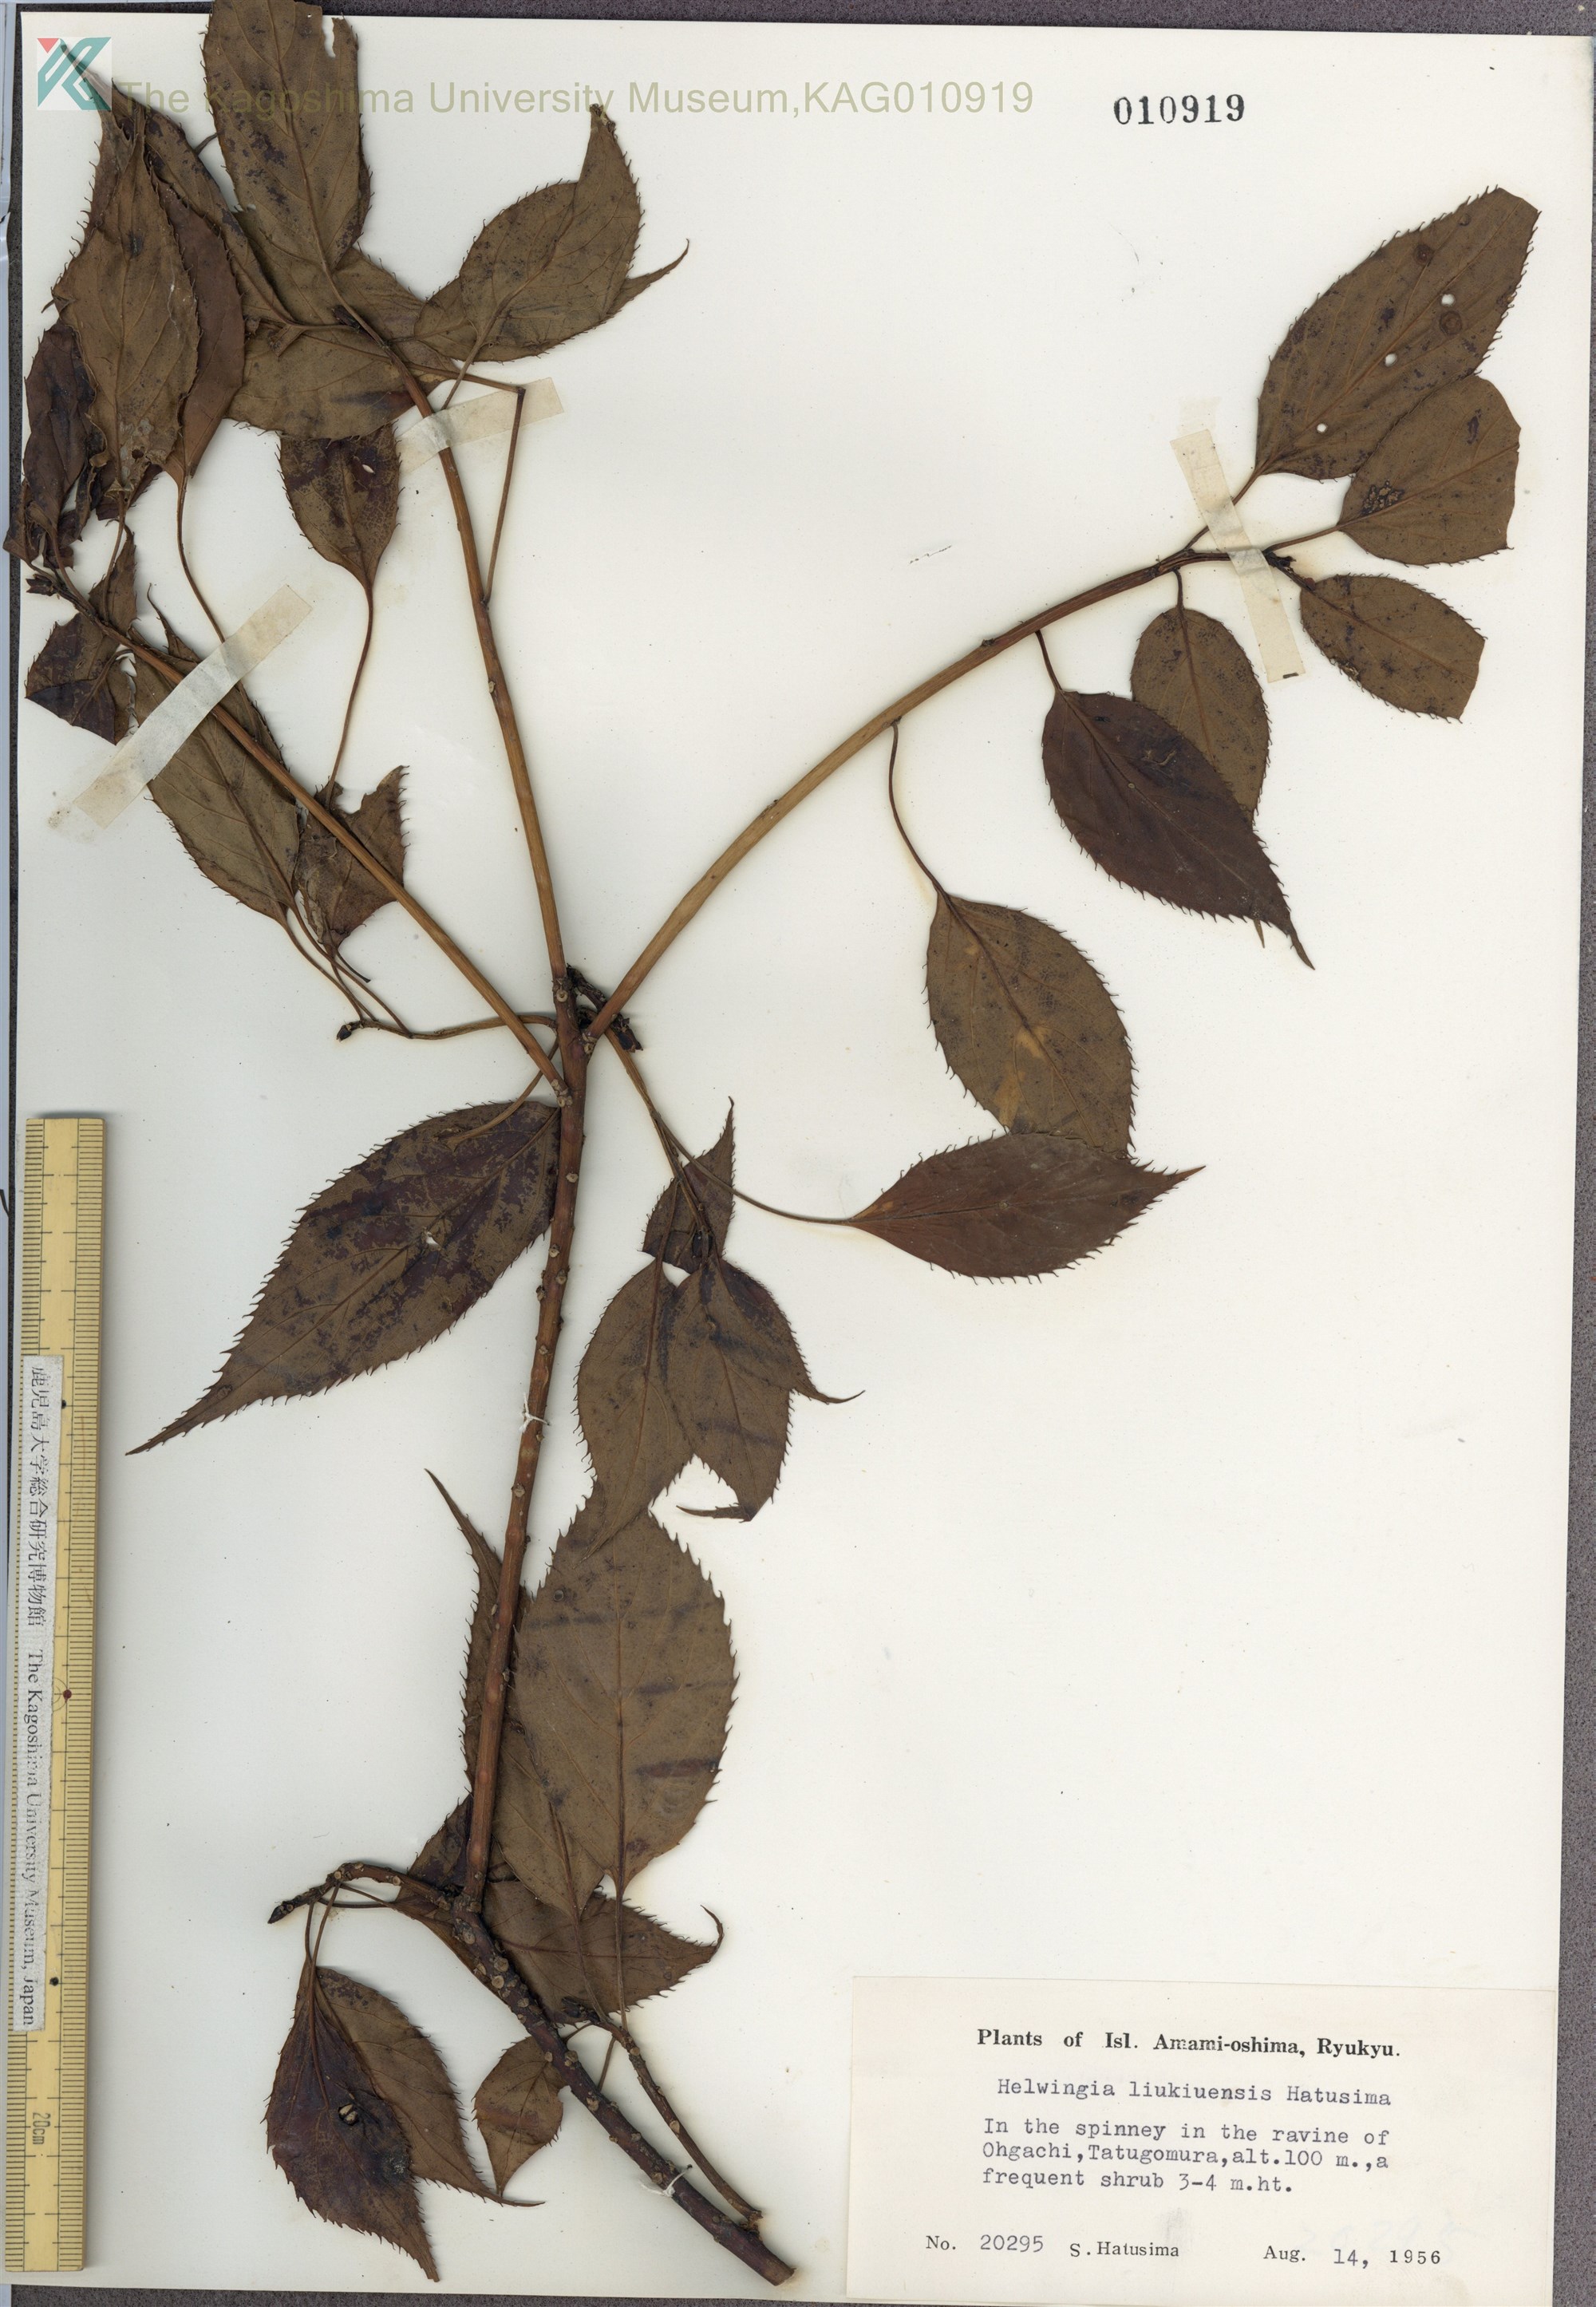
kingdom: Plantae
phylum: Tracheophyta
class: Magnoliopsida
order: Aquifoliales
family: Helwingiaceae
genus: Helwingia
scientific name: Helwingia japonica
